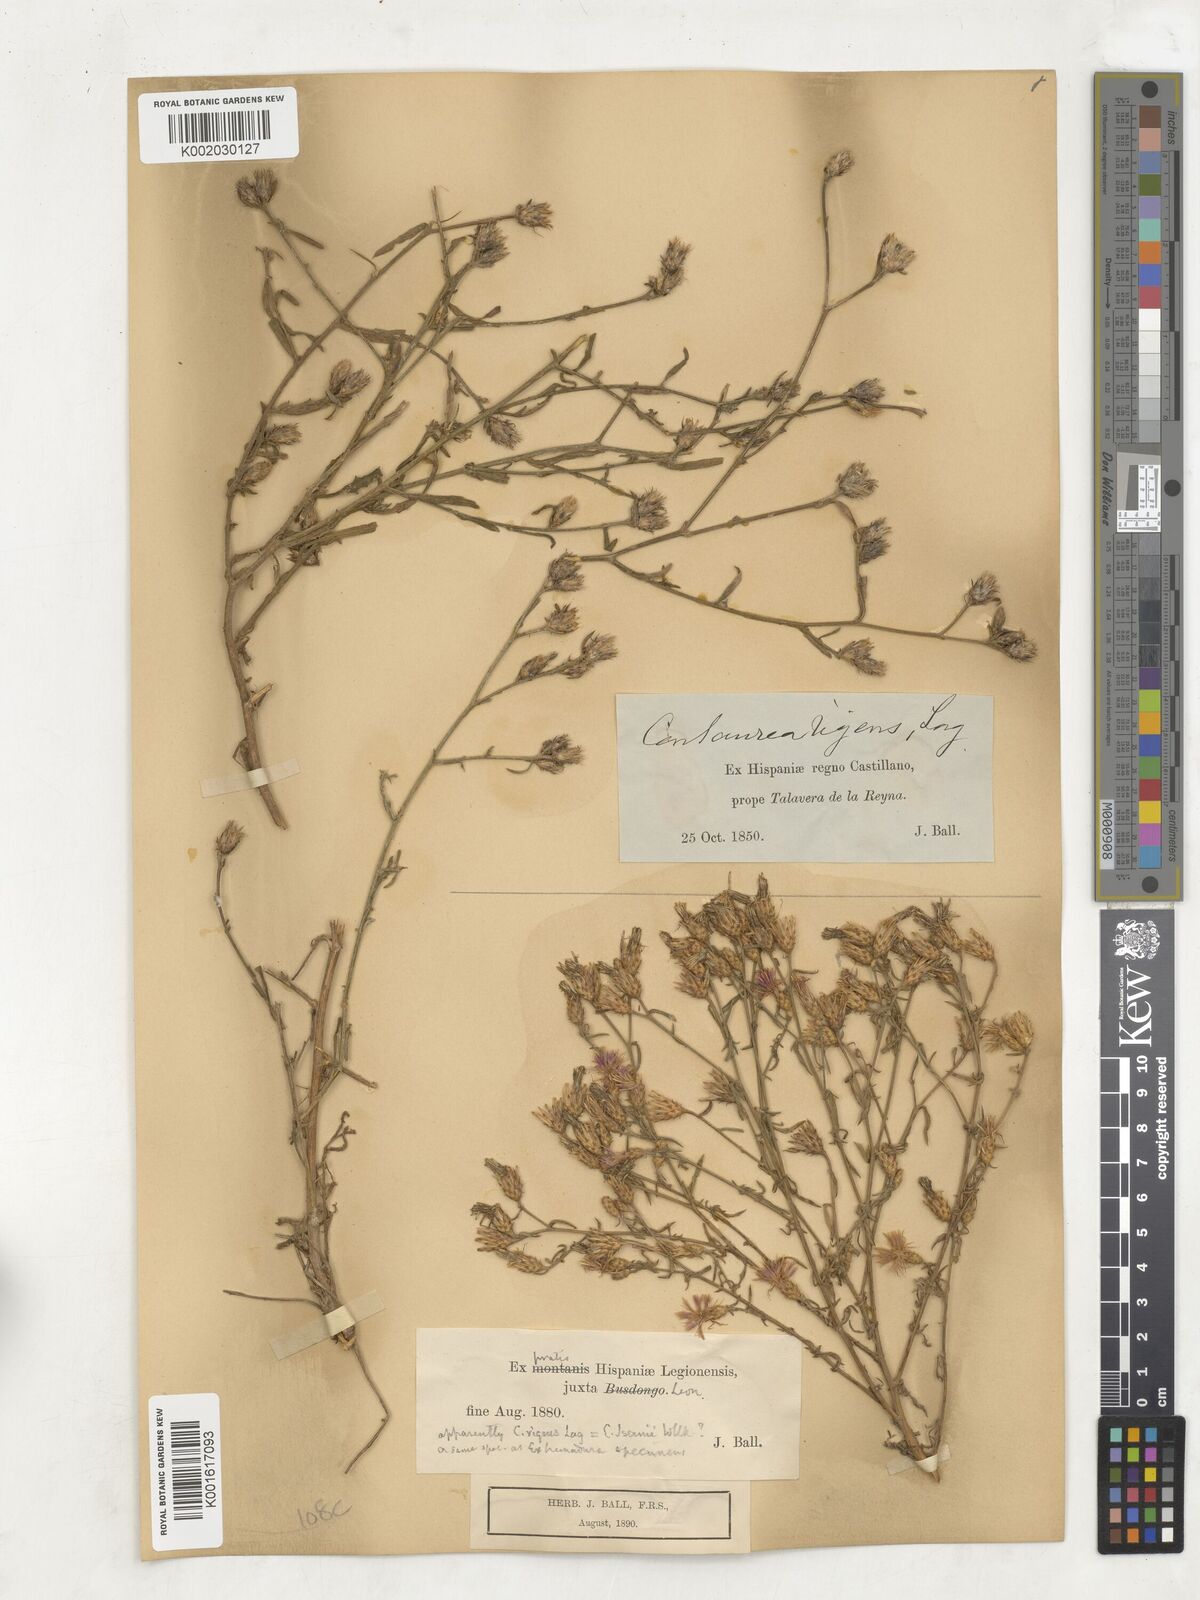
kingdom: Plantae
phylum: Tracheophyta
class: Magnoliopsida
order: Asterales
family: Asteraceae
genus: Centaurea
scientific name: Centaurea hanryi
